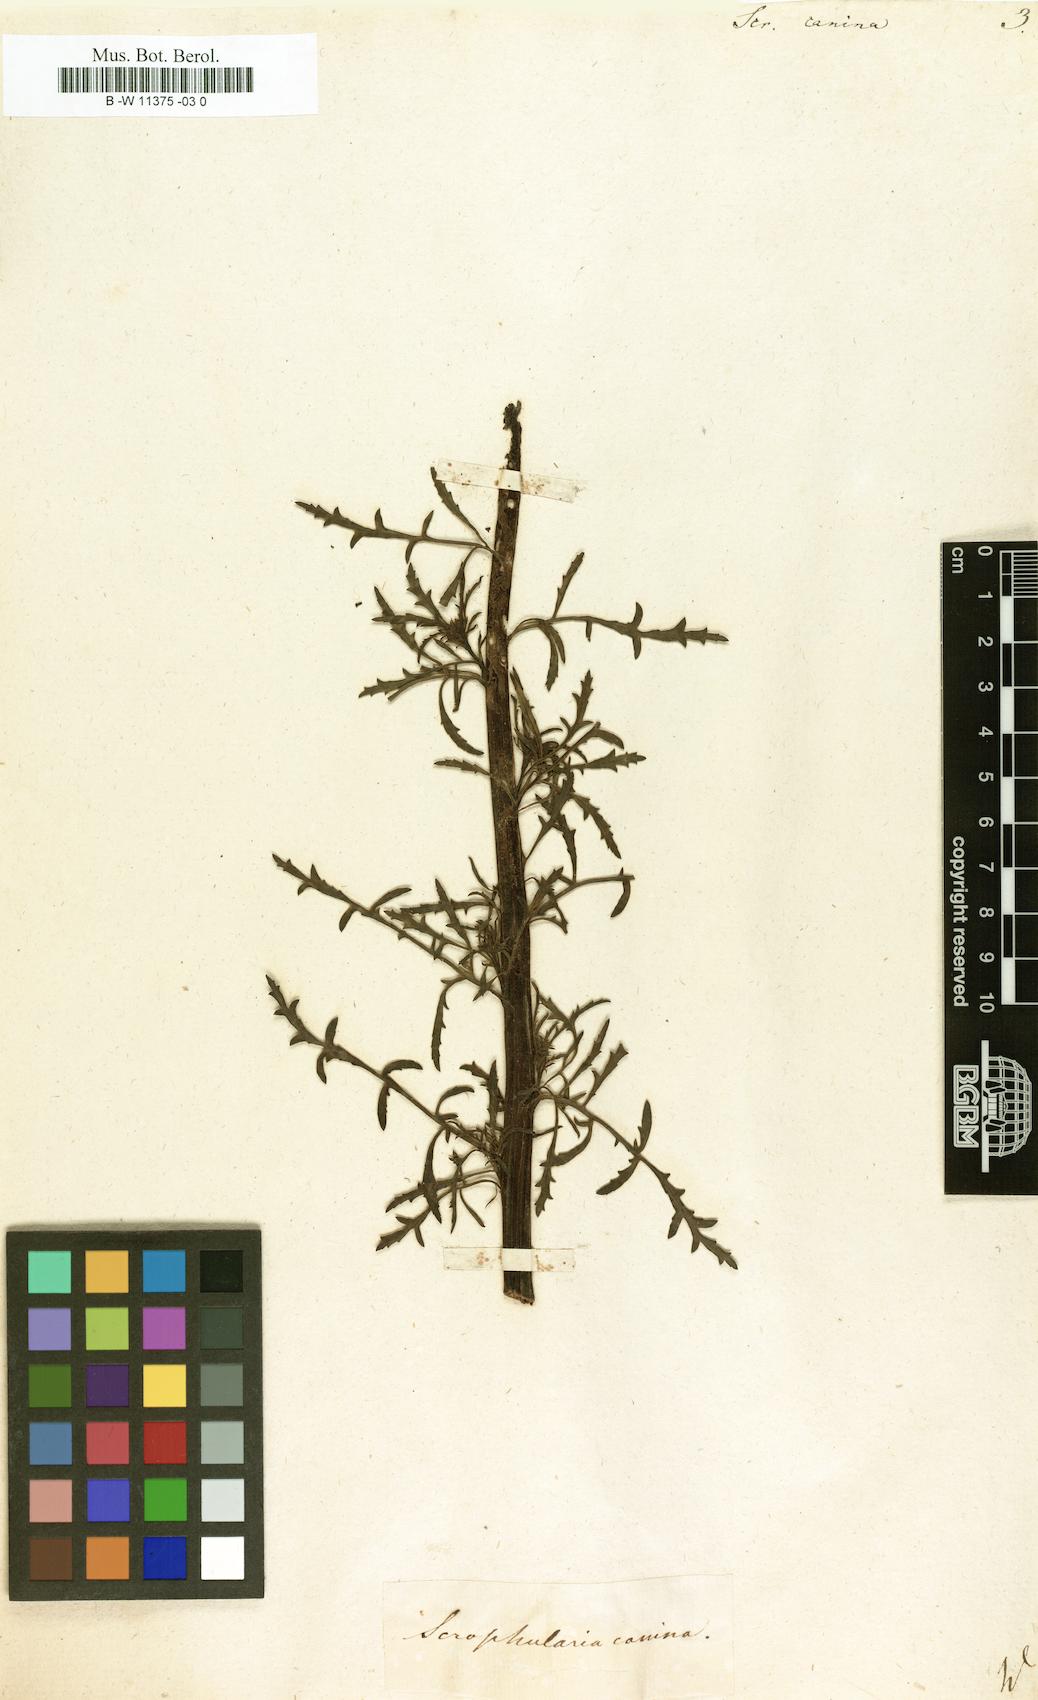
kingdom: Plantae
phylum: Tracheophyta
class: Magnoliopsida
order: Lamiales
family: Scrophulariaceae
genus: Scrophularia
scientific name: Scrophularia canina
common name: French figwort
